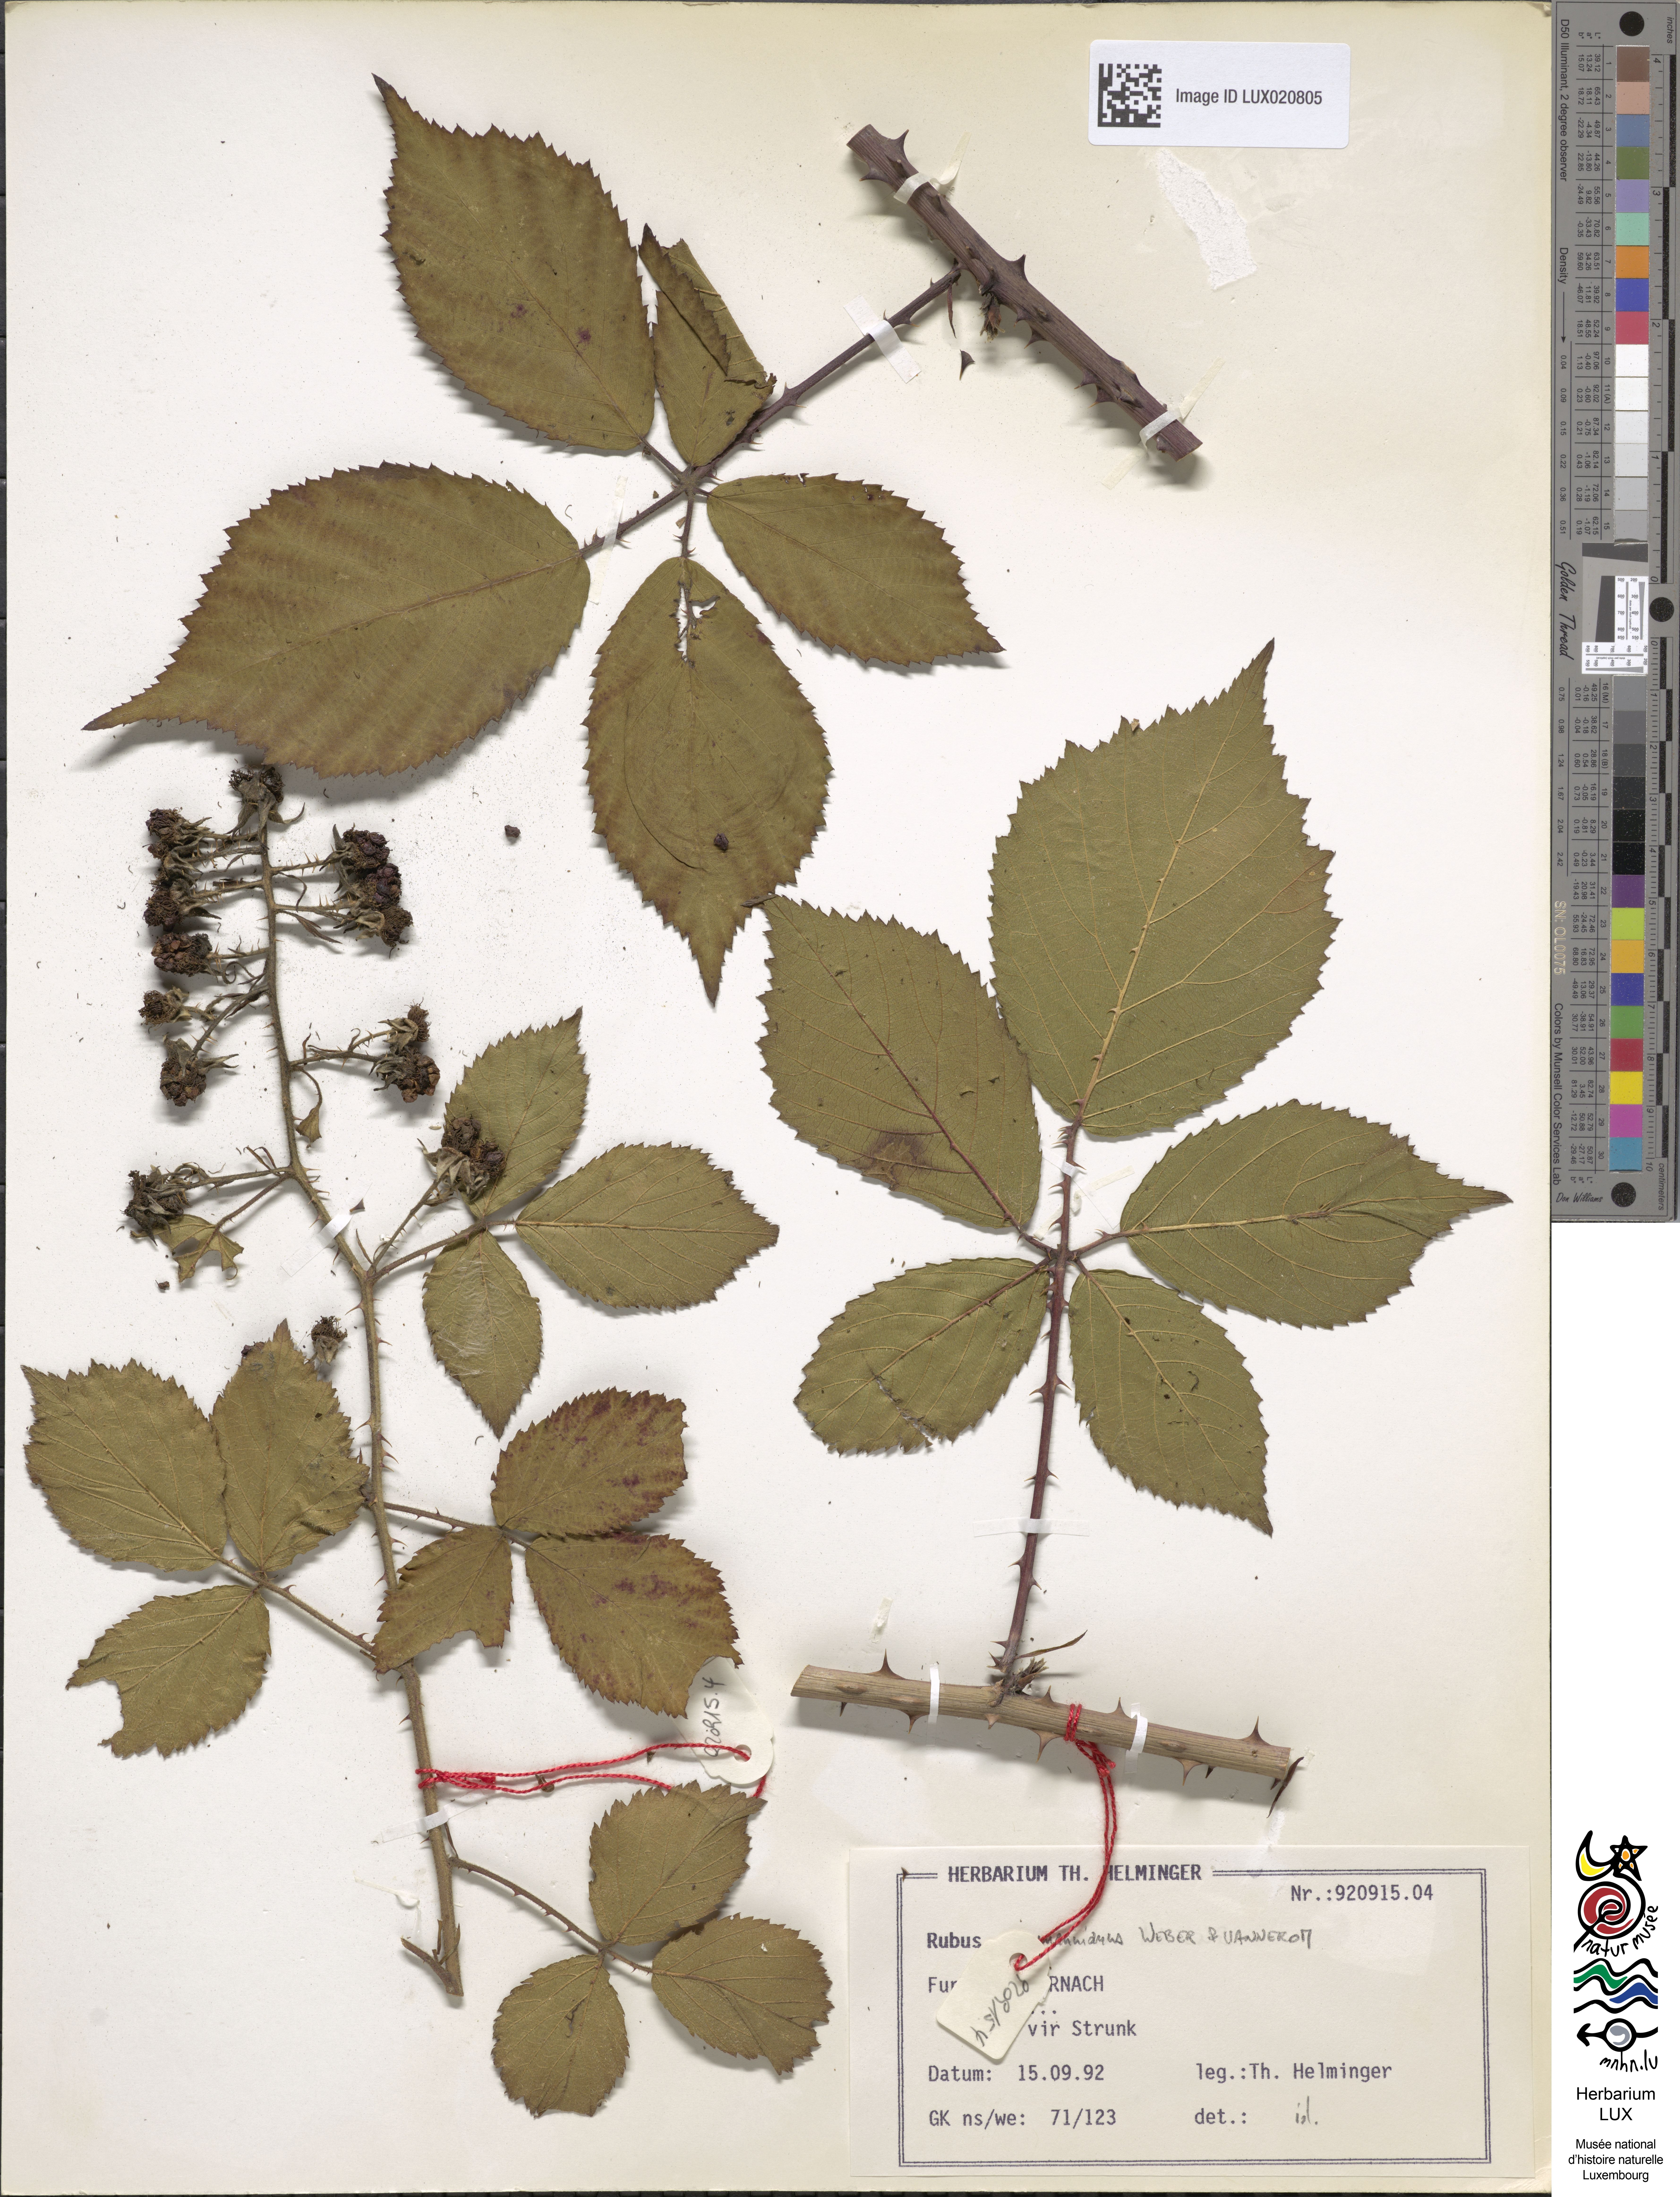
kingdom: Plantae
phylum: Tracheophyta
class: Magnoliopsida
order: Rosales
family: Rosaceae
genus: Rubus
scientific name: Rubus favonii
